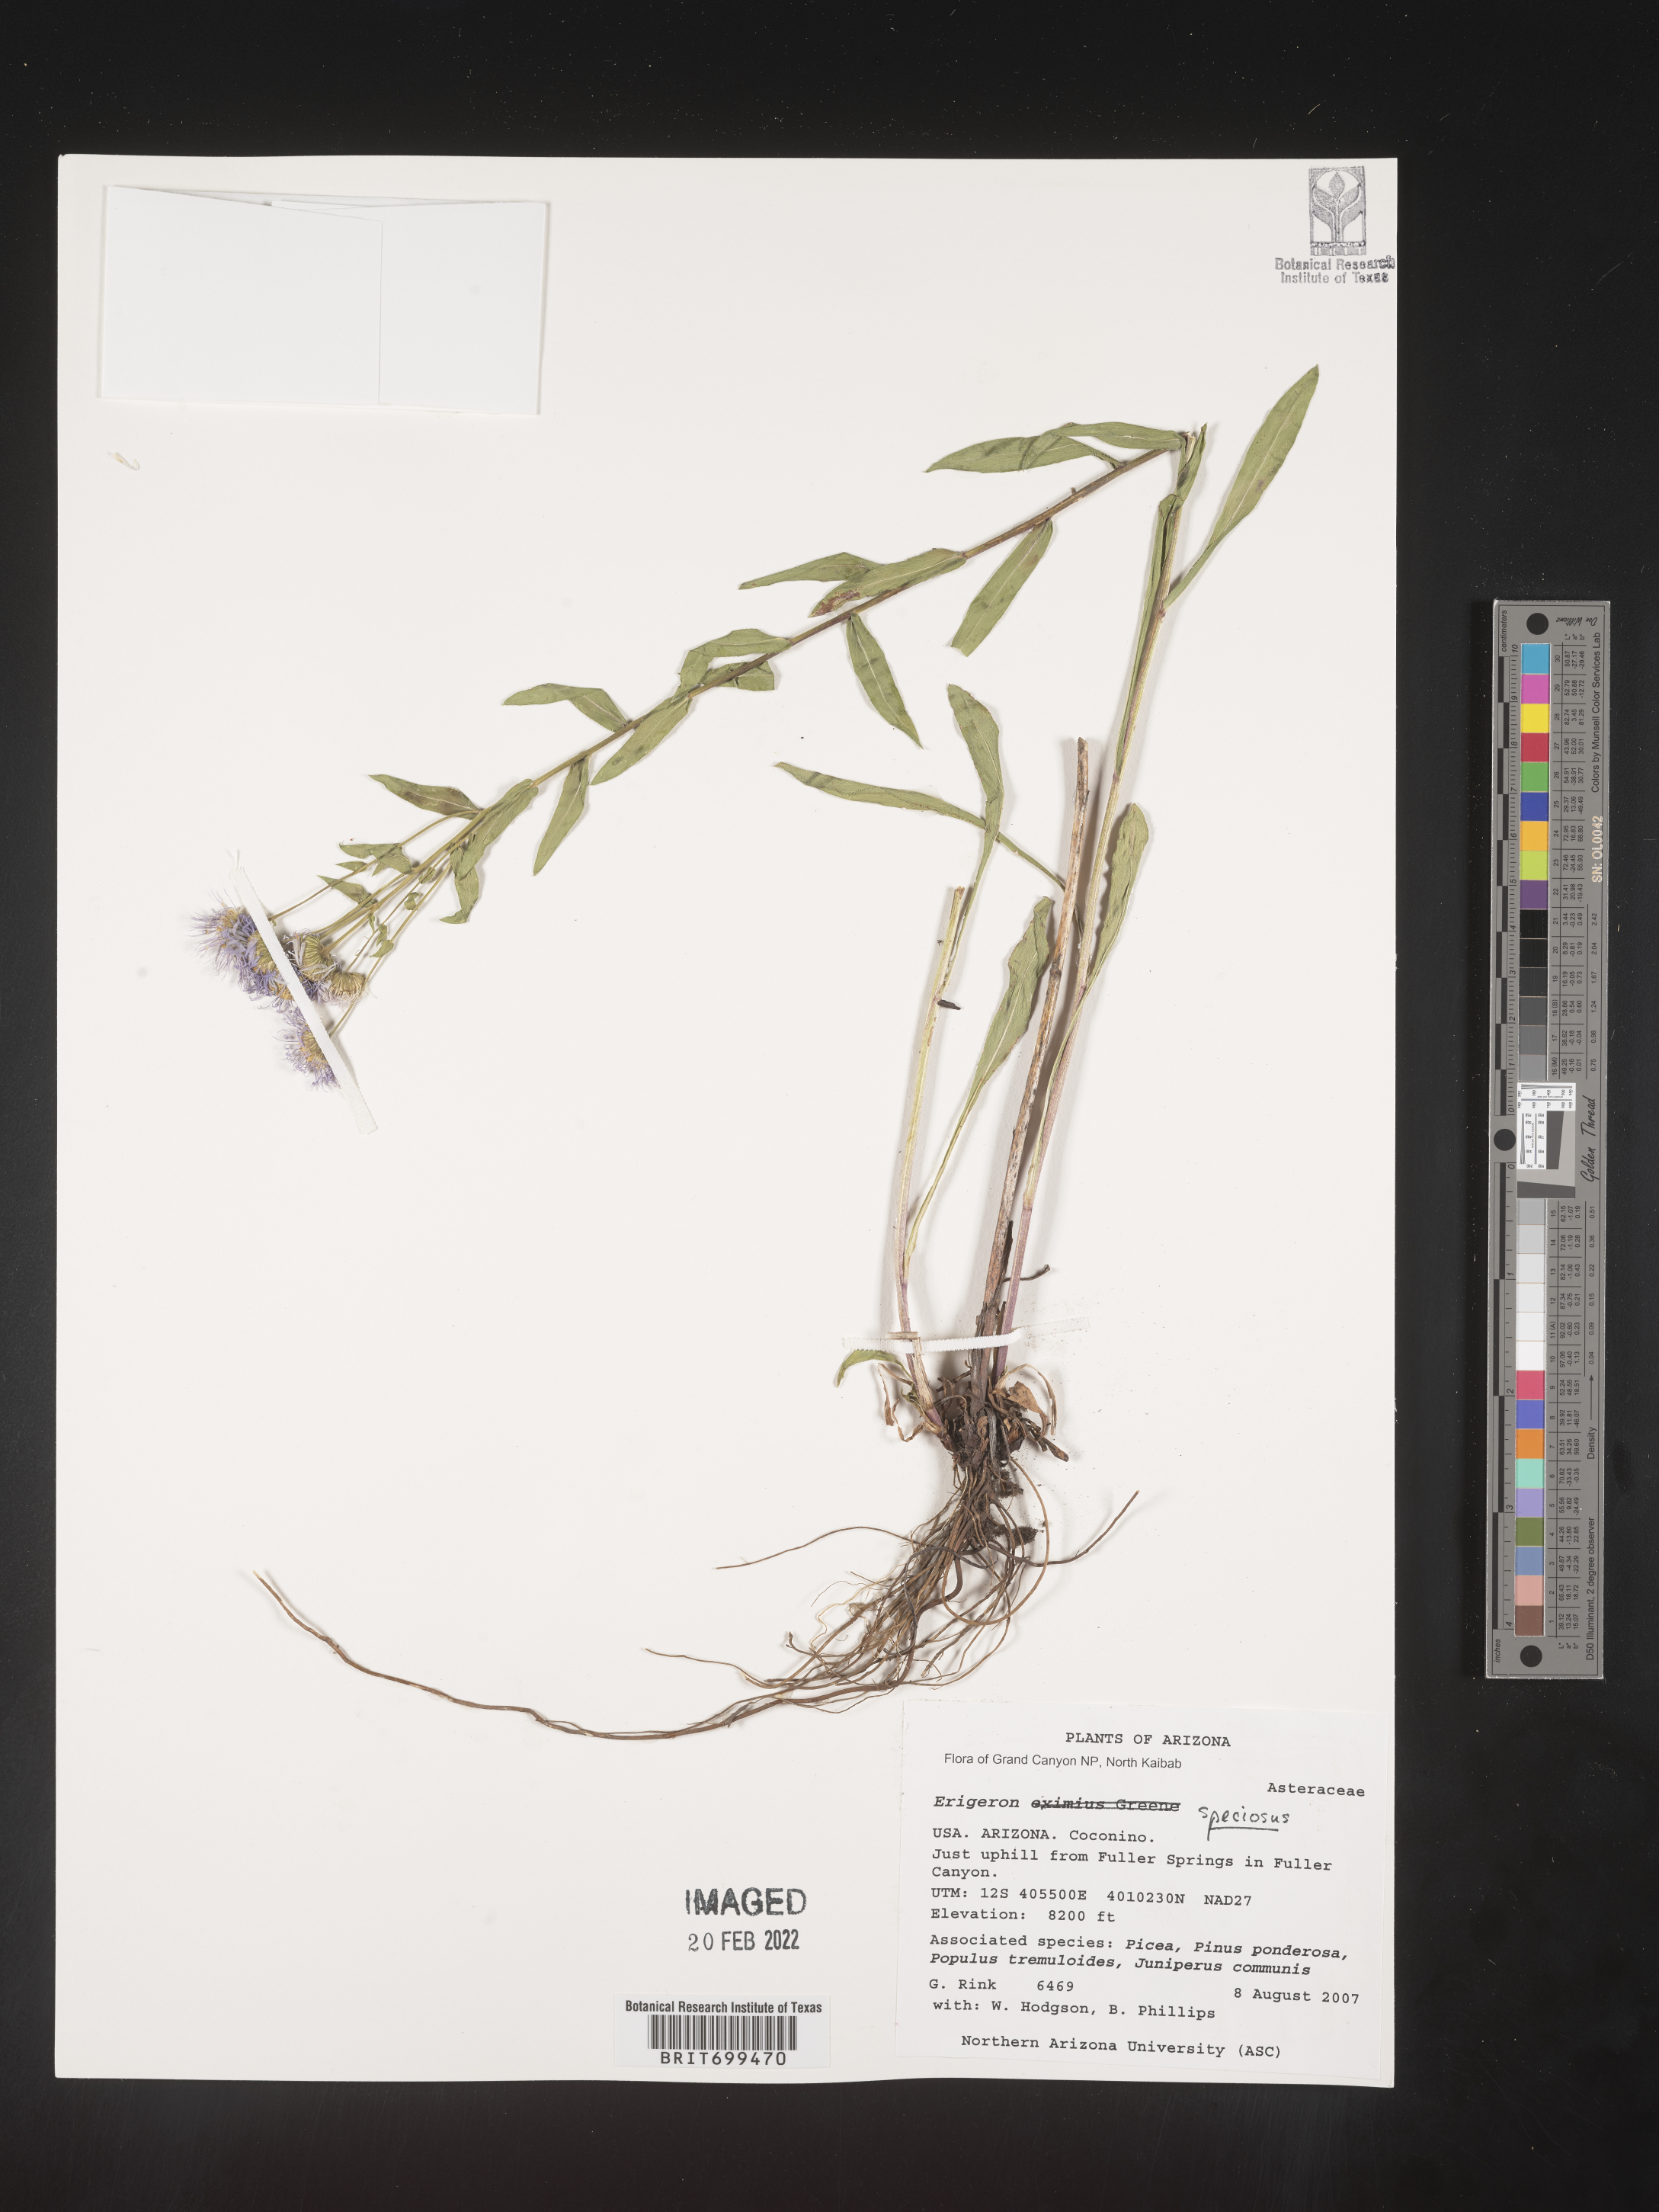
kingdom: Plantae
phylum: Tracheophyta
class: Magnoliopsida
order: Asterales
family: Asteraceae
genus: Erigeron
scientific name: Erigeron speciosus
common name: Aspen fleabane
